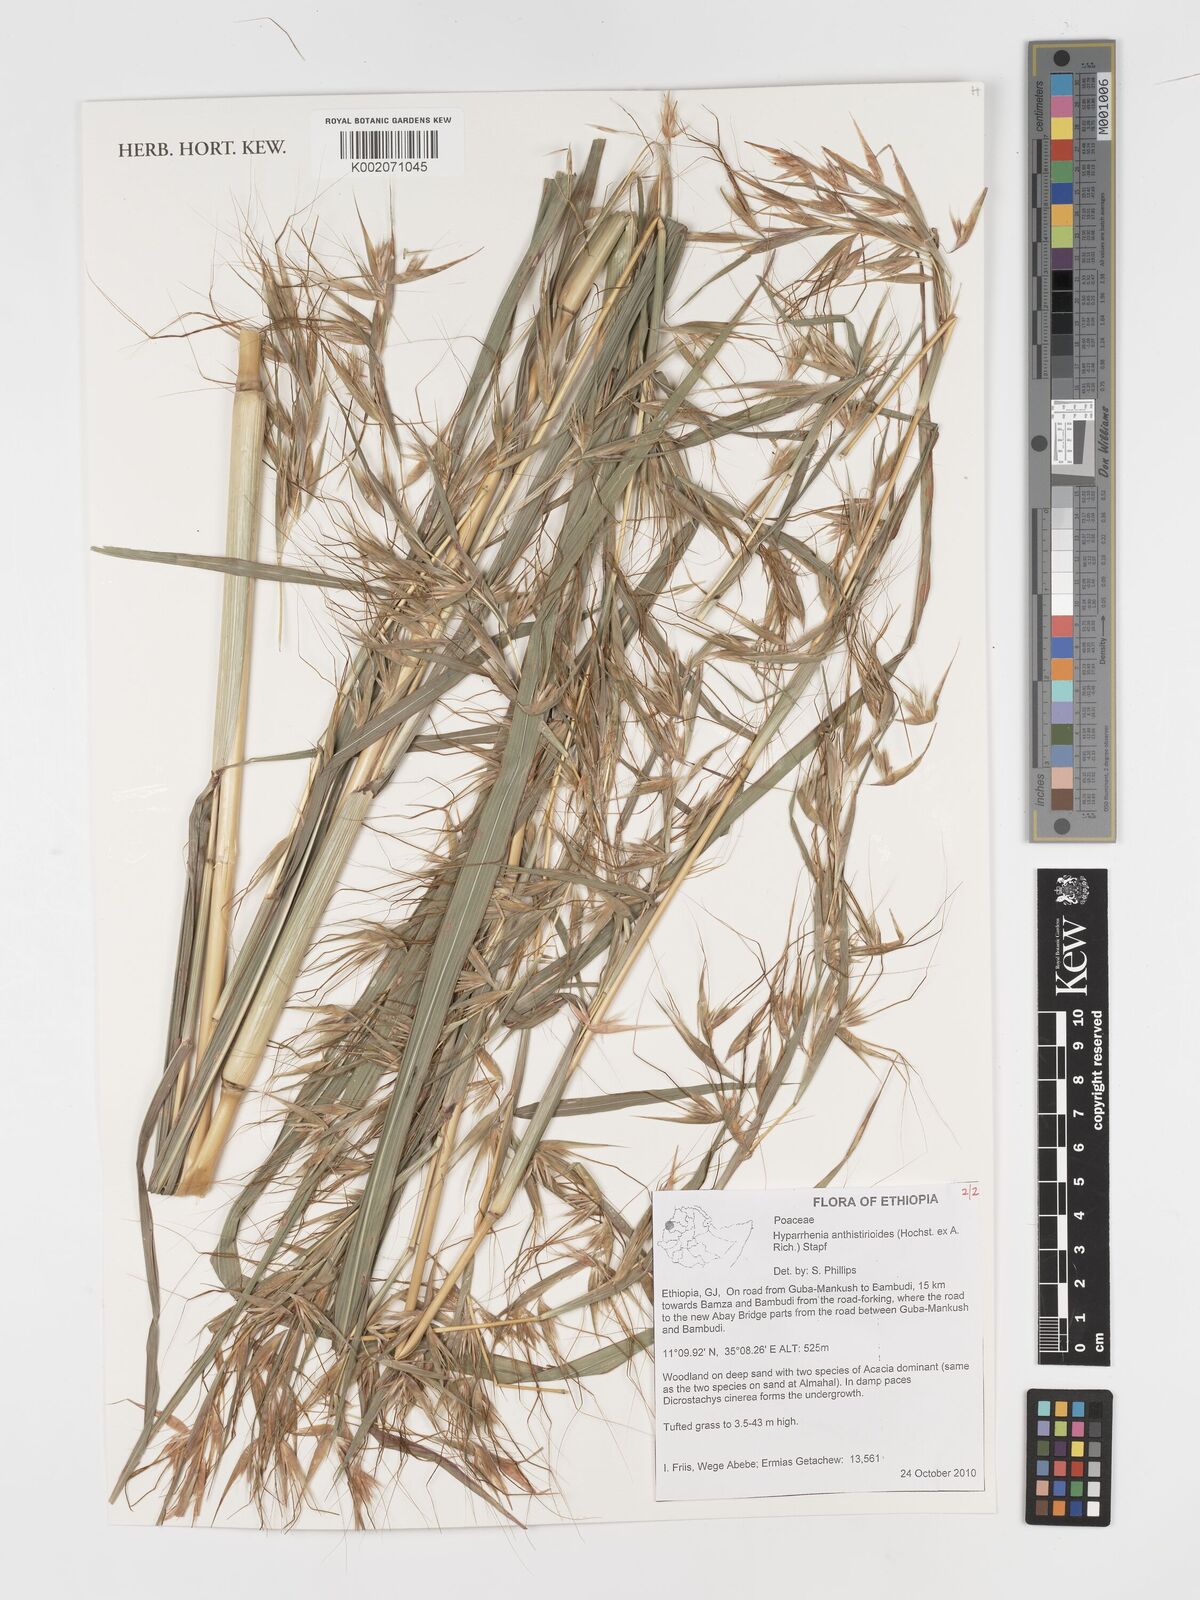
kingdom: Plantae
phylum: Tracheophyta
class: Liliopsida
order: Poales
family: Poaceae
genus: Hyparrhenia
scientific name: Hyparrhenia anthistirioides
